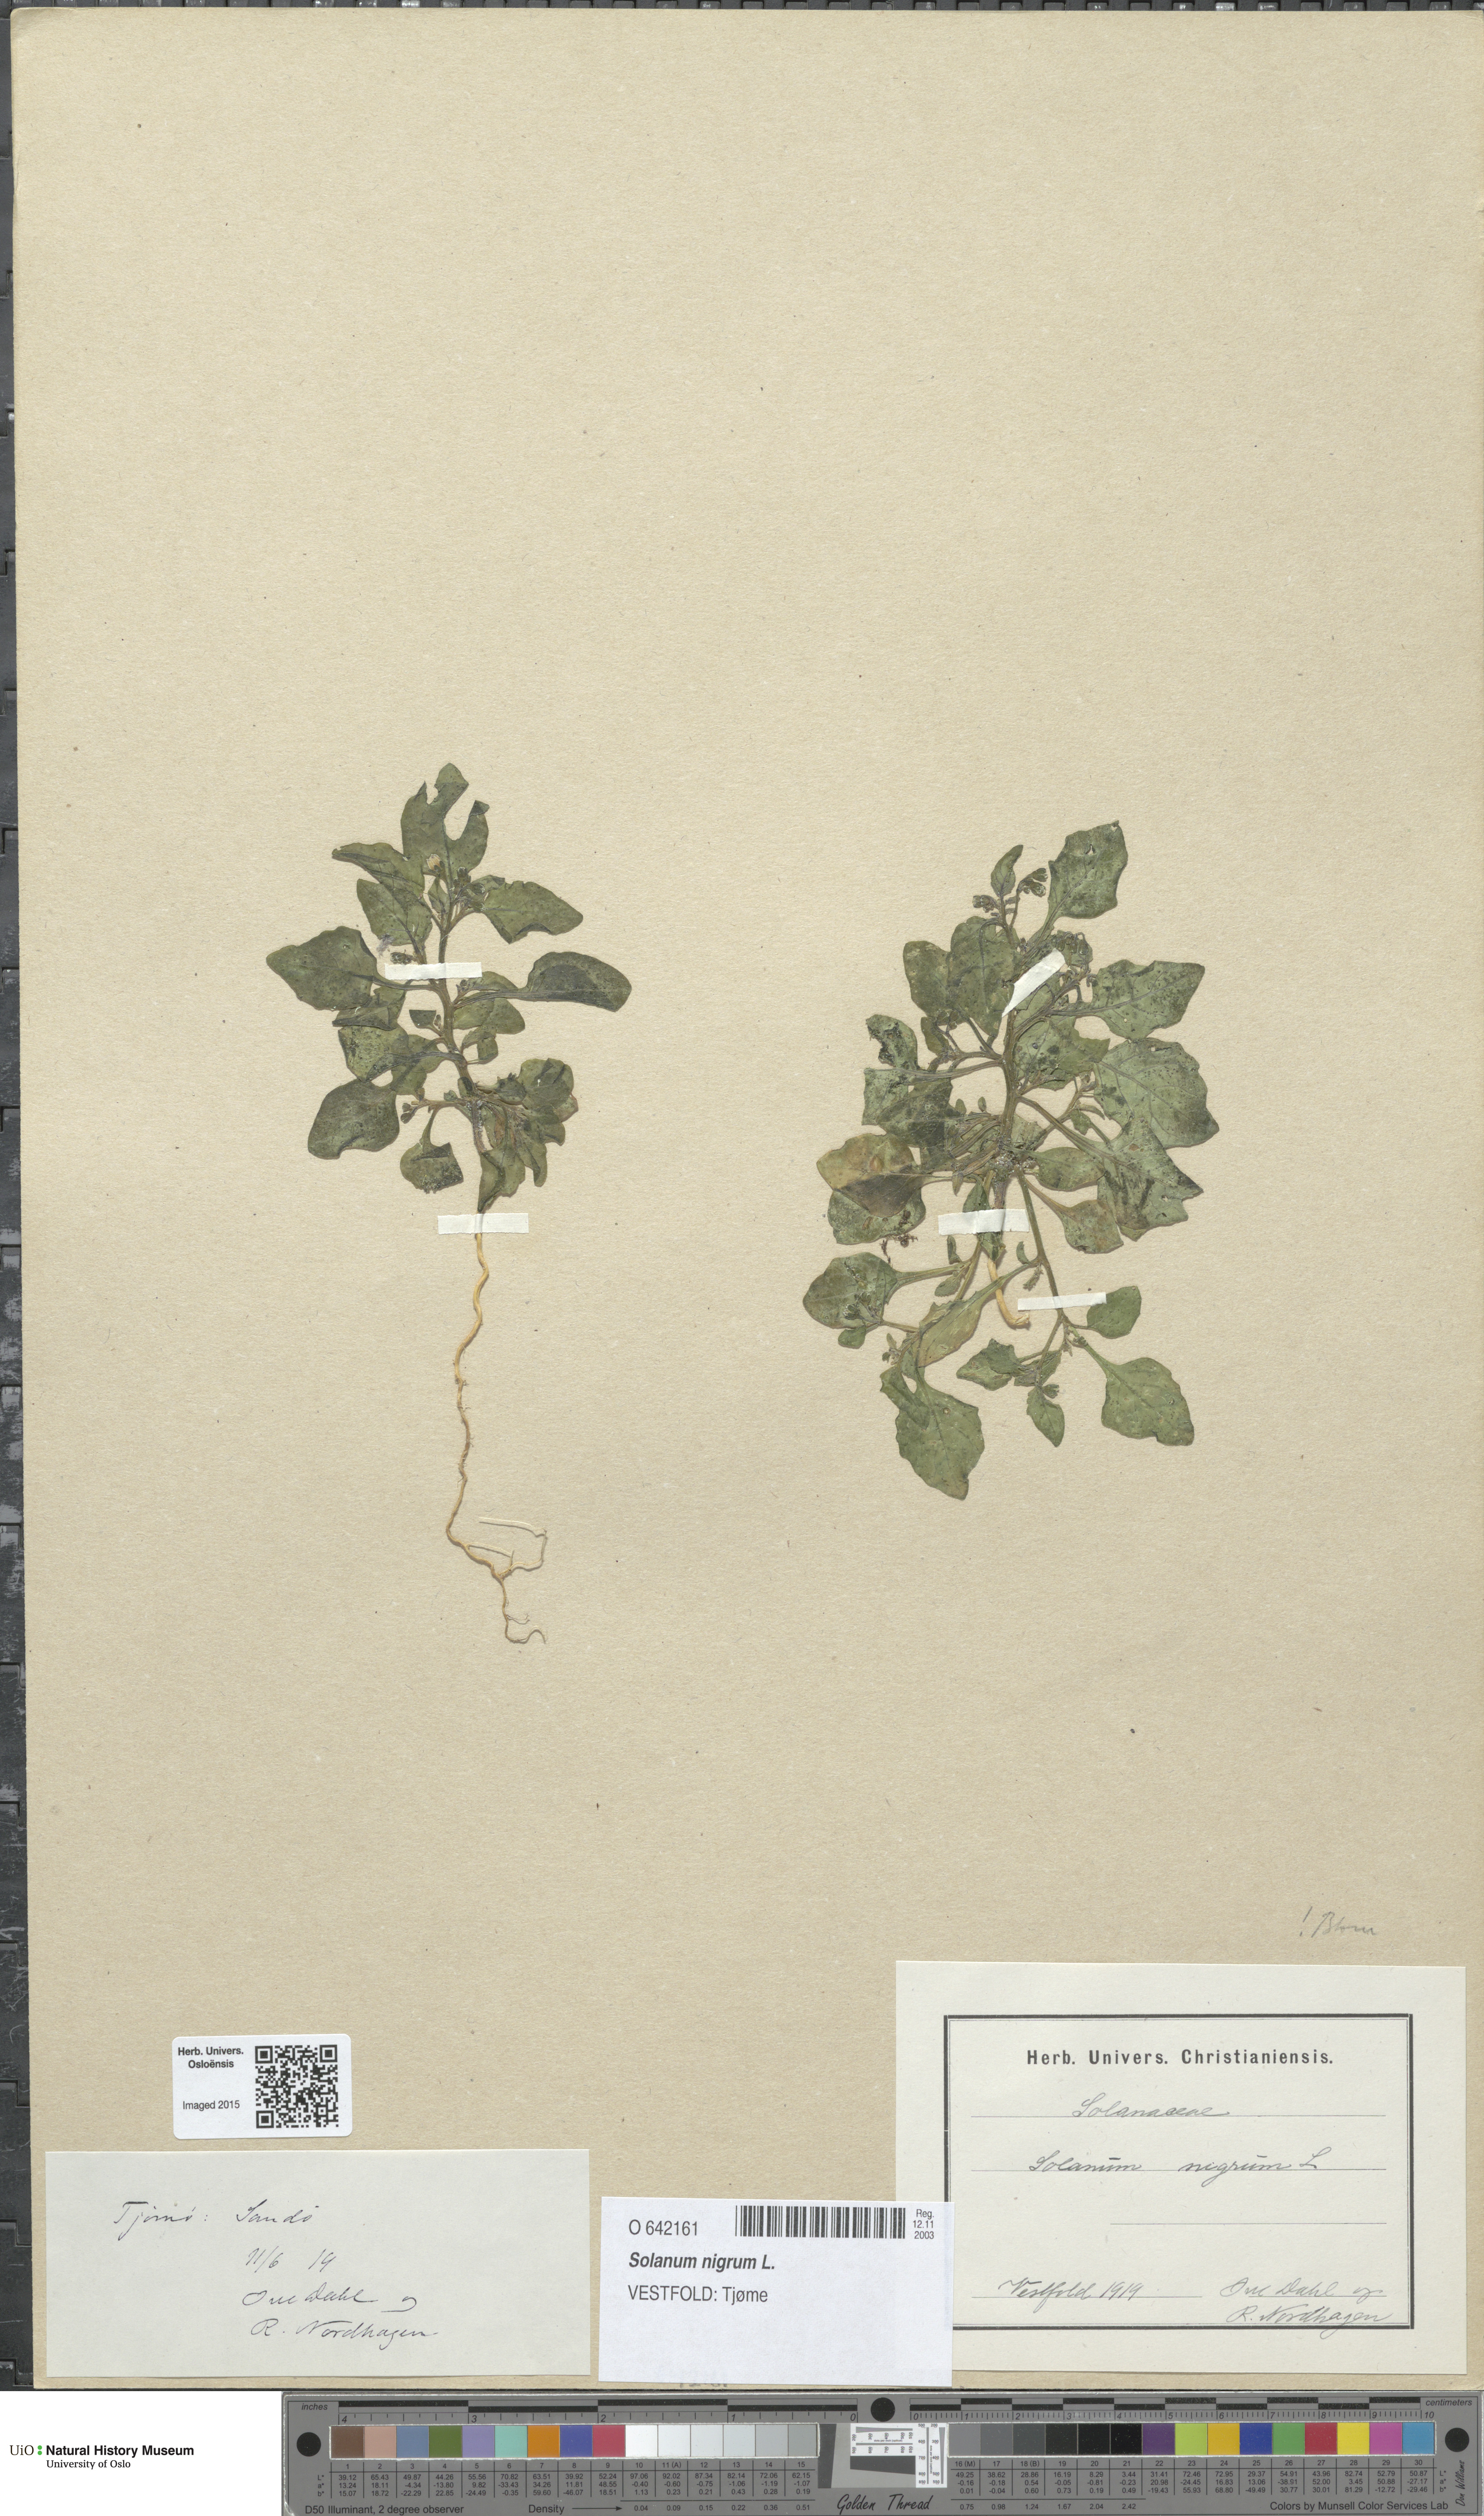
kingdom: Plantae
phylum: Tracheophyta
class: Magnoliopsida
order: Solanales
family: Solanaceae
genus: Solanum
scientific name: Solanum nigrum
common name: Black nightshade
